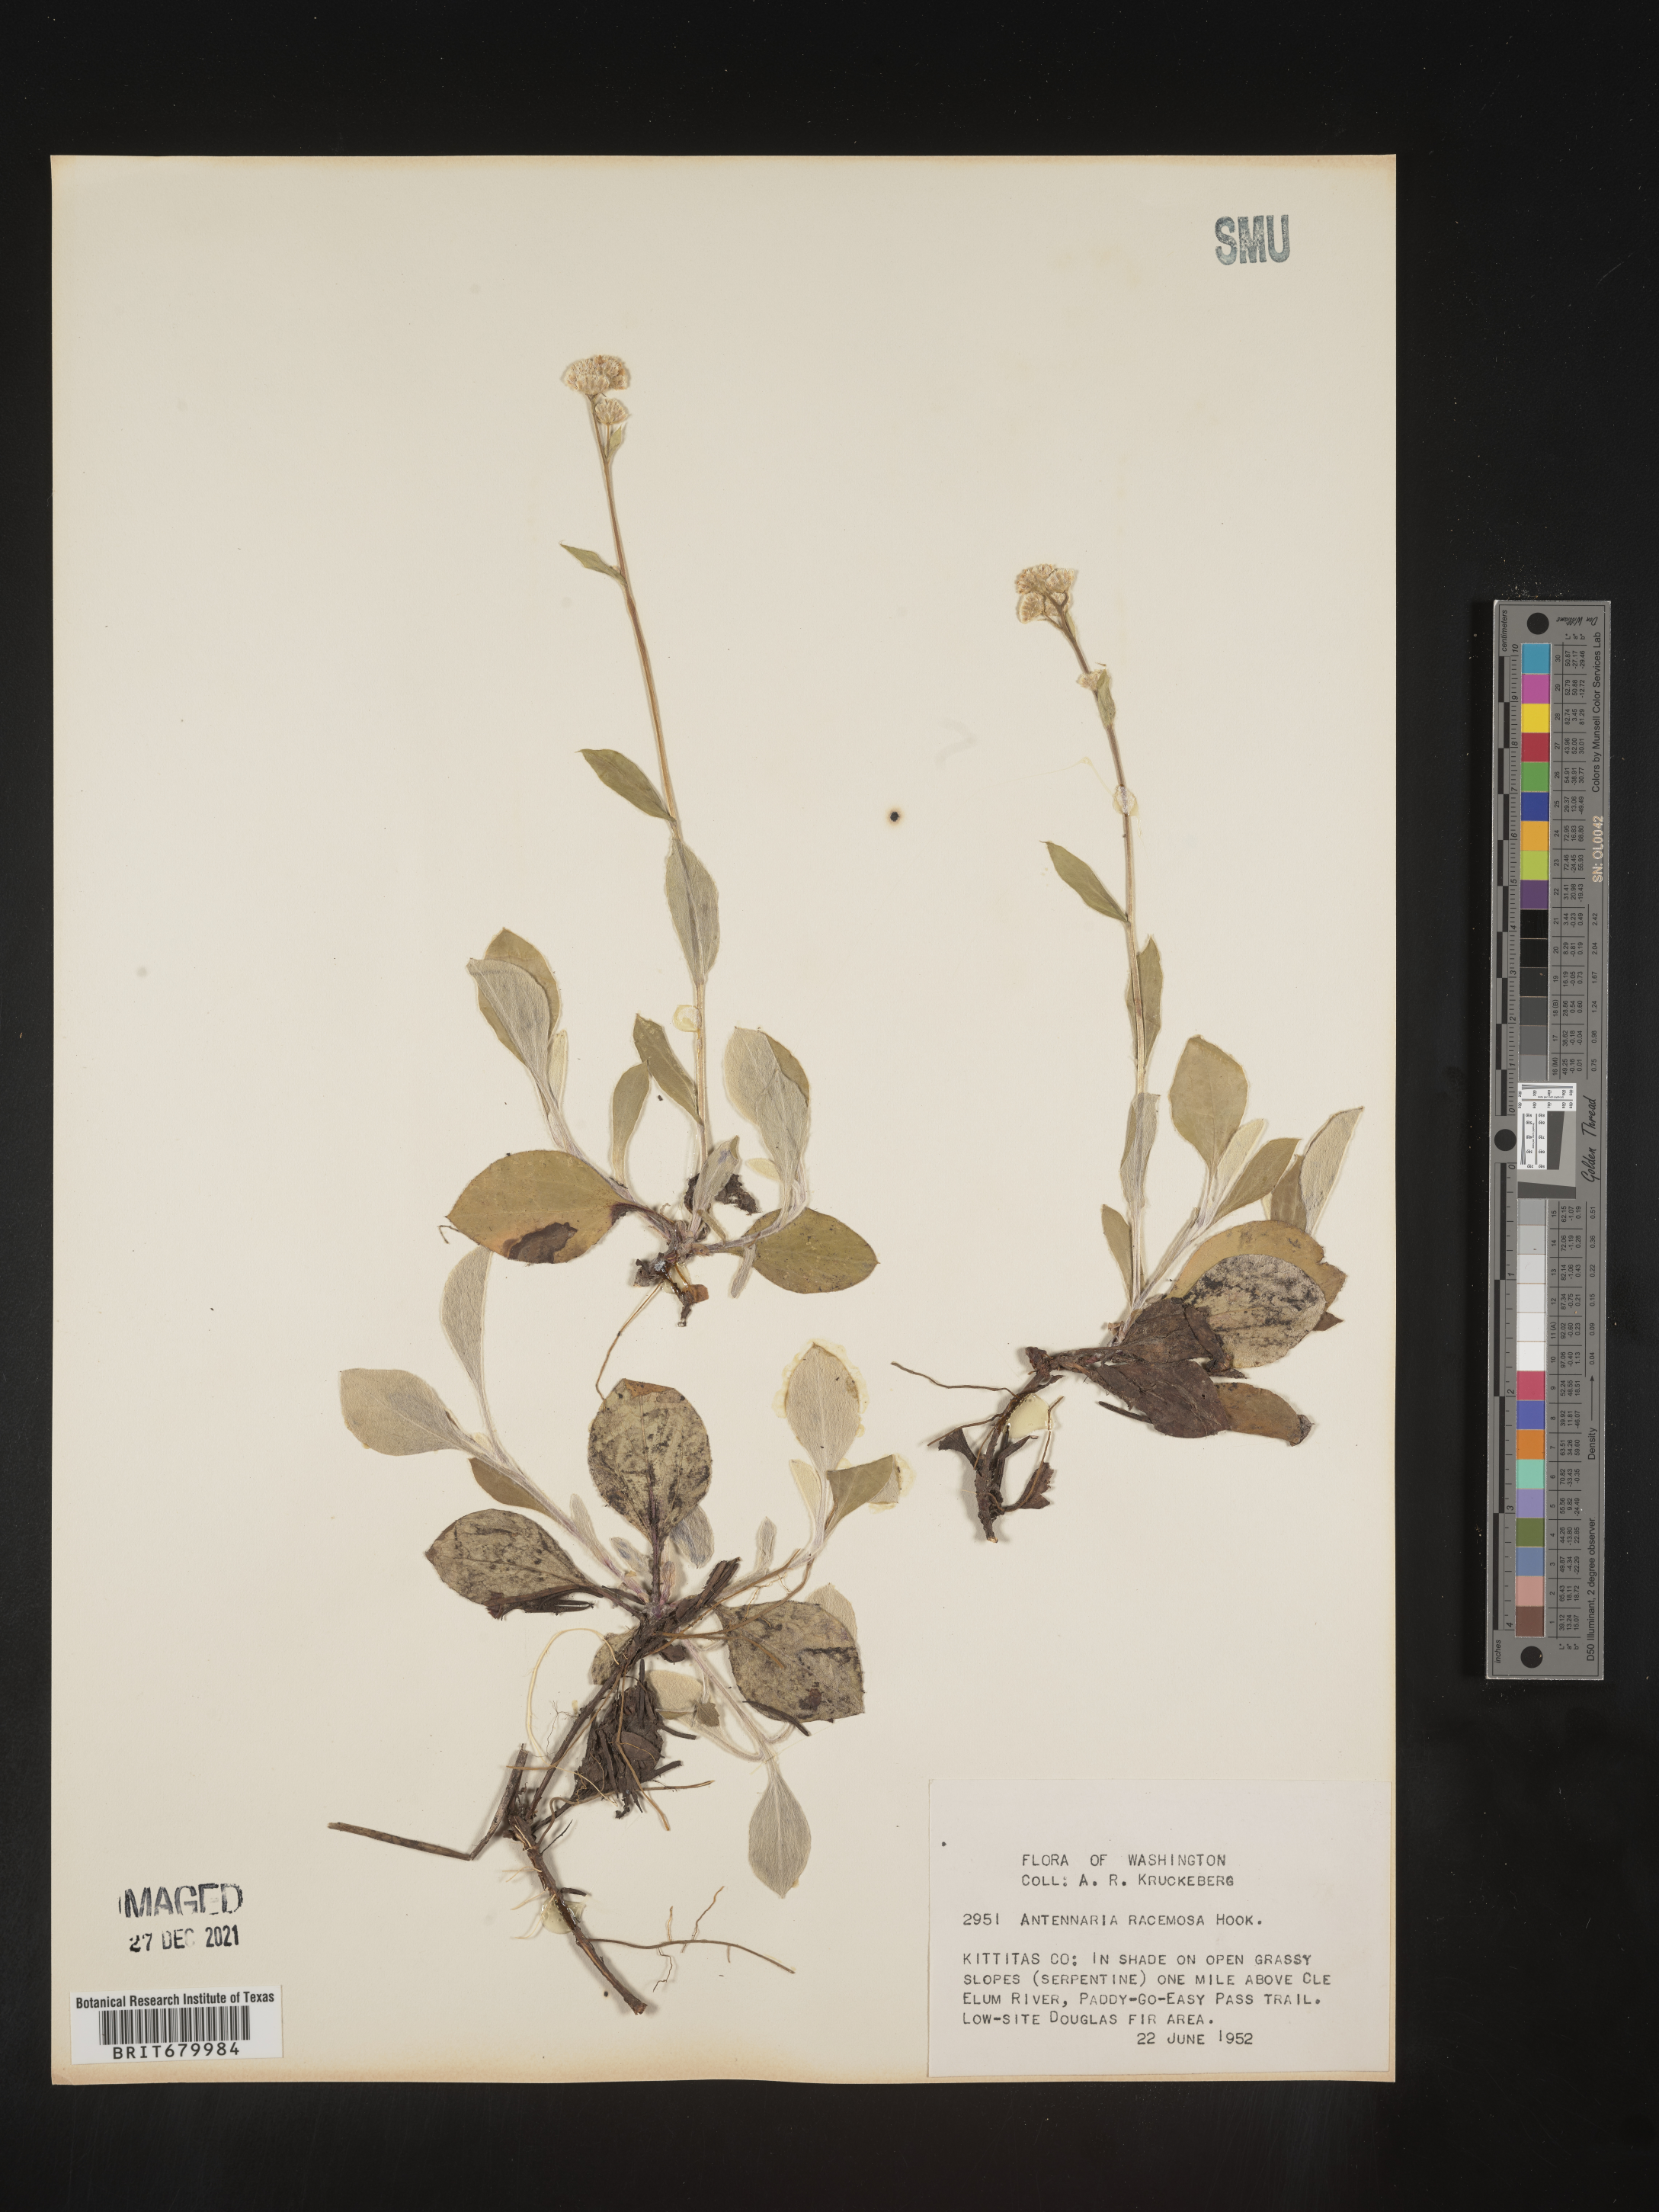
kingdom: Plantae
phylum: Tracheophyta
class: Magnoliopsida
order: Asterales
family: Asteraceae
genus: Antennaria
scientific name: Antennaria racemosa
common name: Racemose pussytoes
